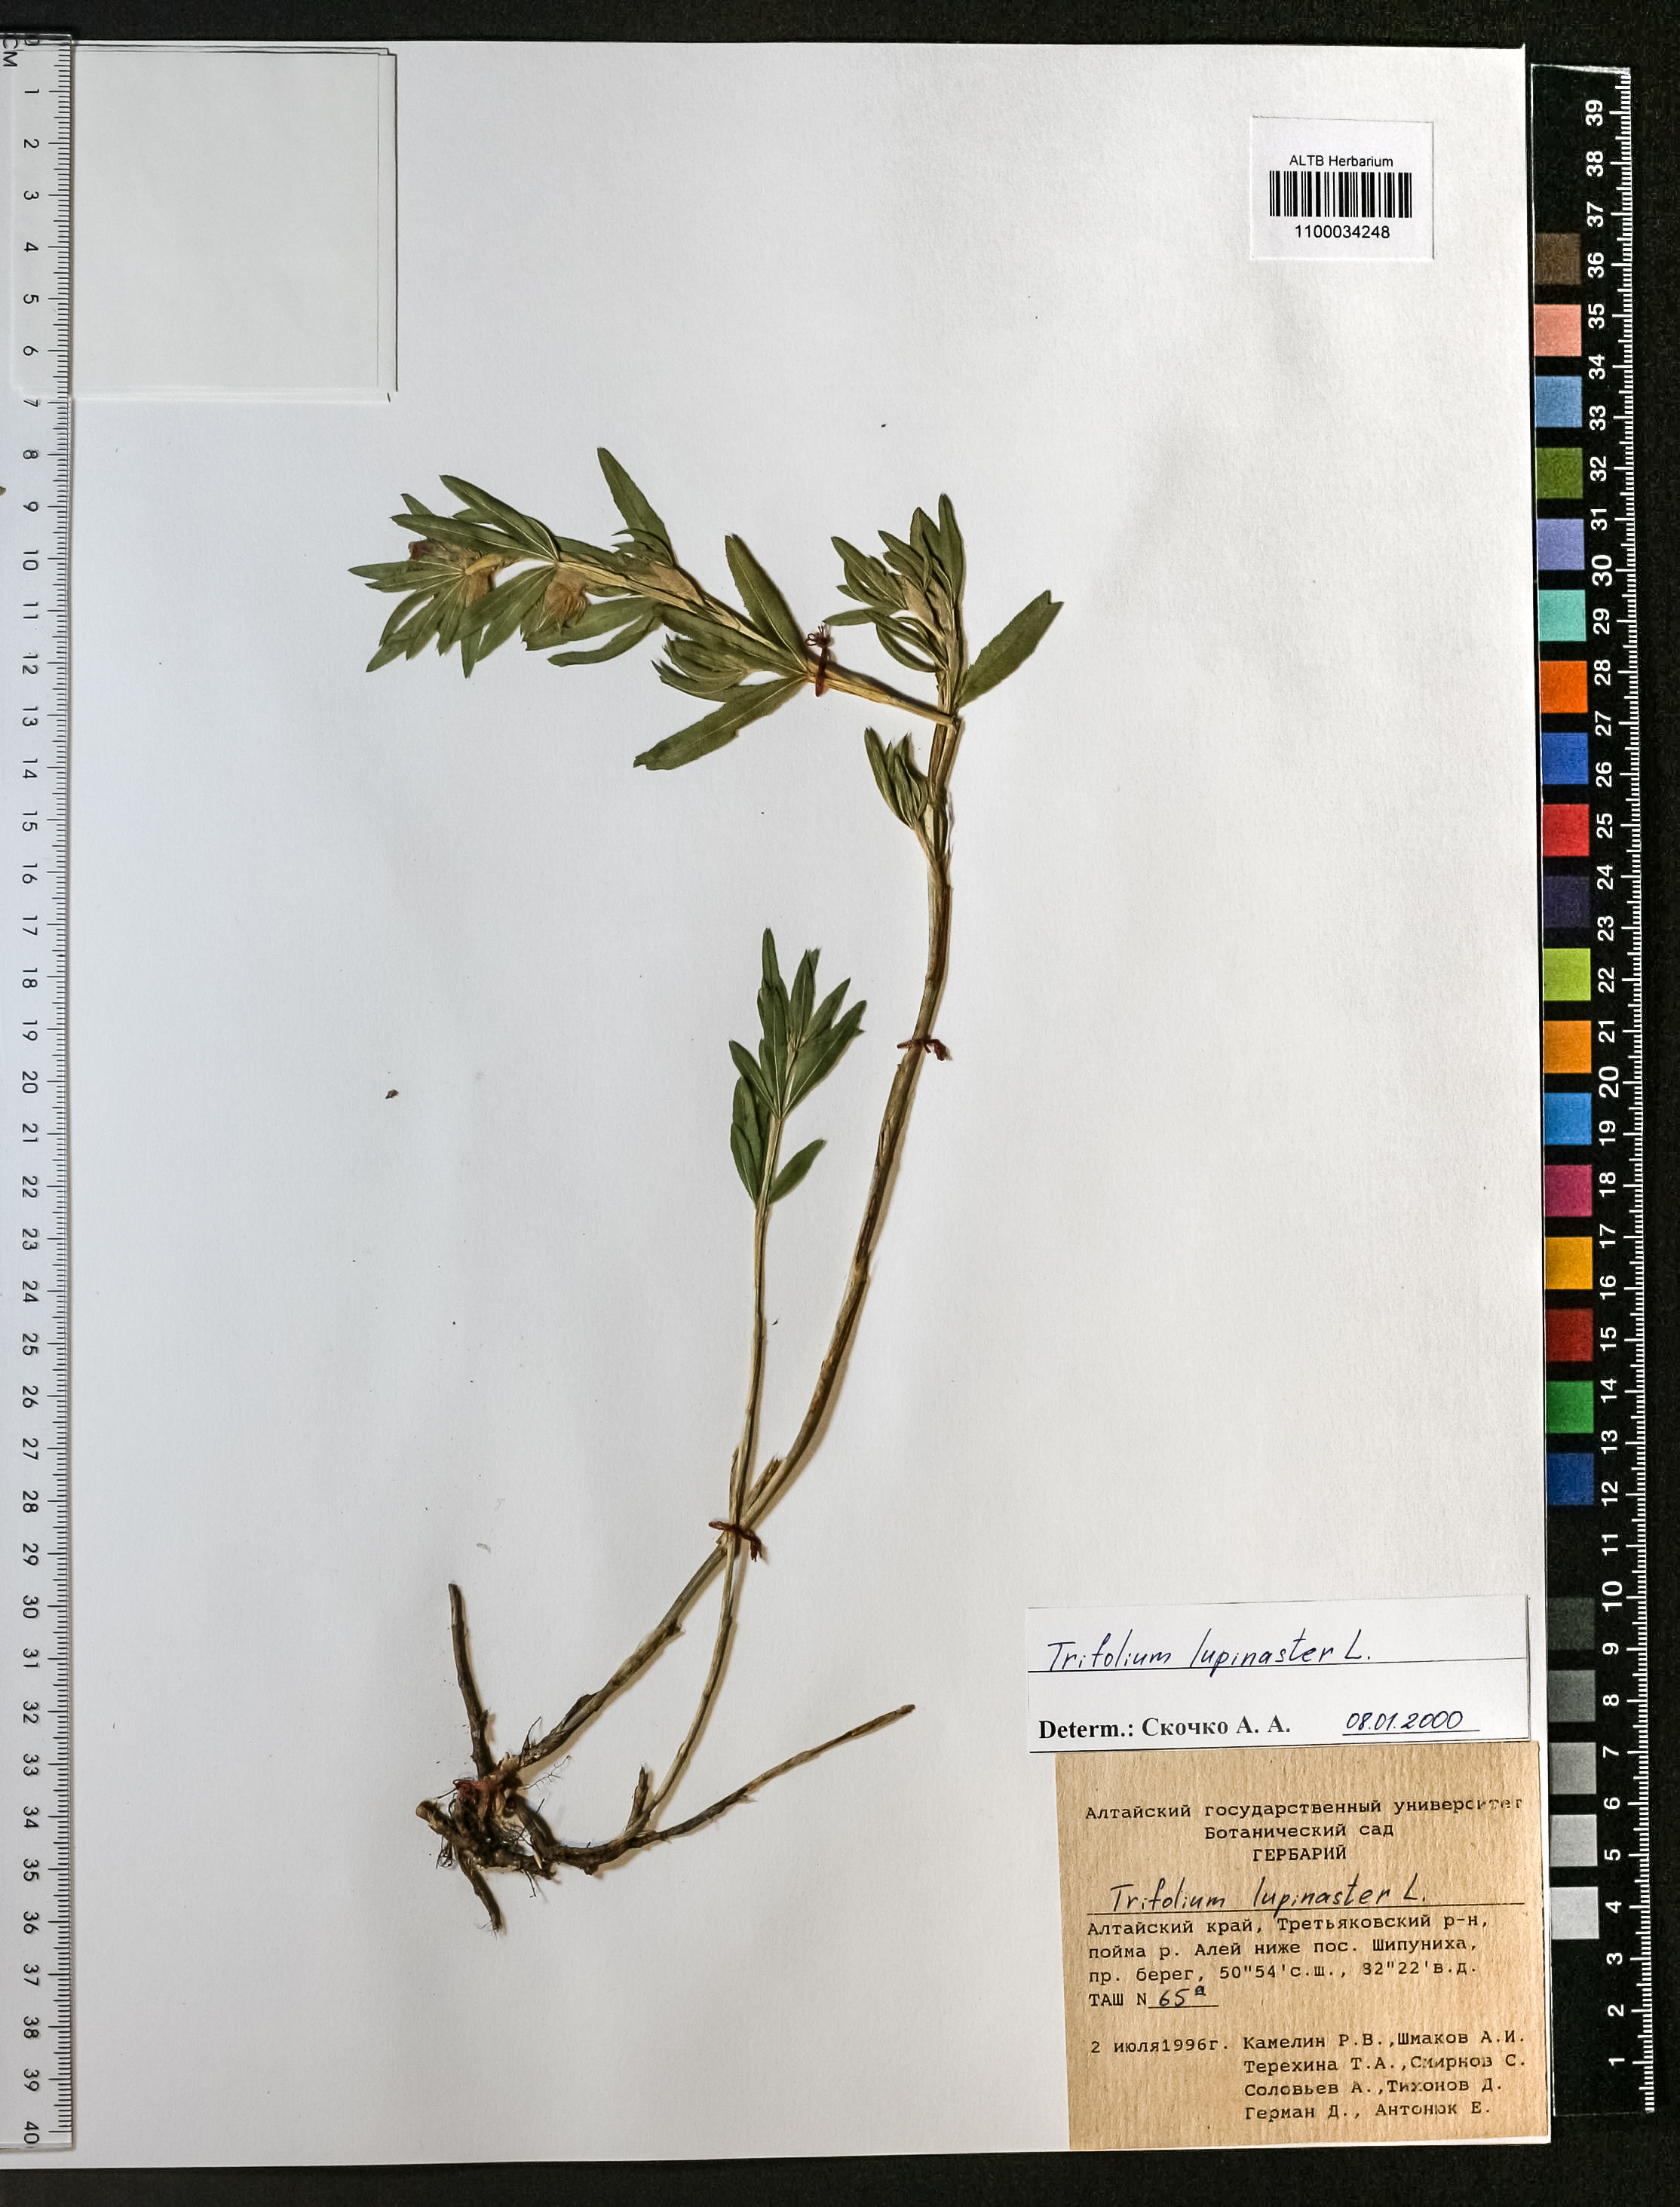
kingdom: Plantae
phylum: Tracheophyta
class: Magnoliopsida
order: Fabales
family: Fabaceae
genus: Trifolium
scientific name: Trifolium lupinaster
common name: Lupine clover
